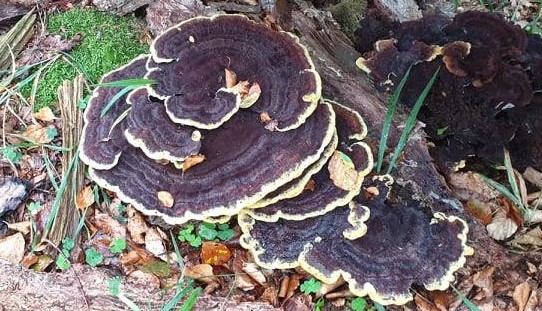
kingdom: Fungi
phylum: Basidiomycota
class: Agaricomycetes
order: Polyporales
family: Laetiporaceae
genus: Phaeolus
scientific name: Phaeolus schweinitzii
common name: brunporesvamp
